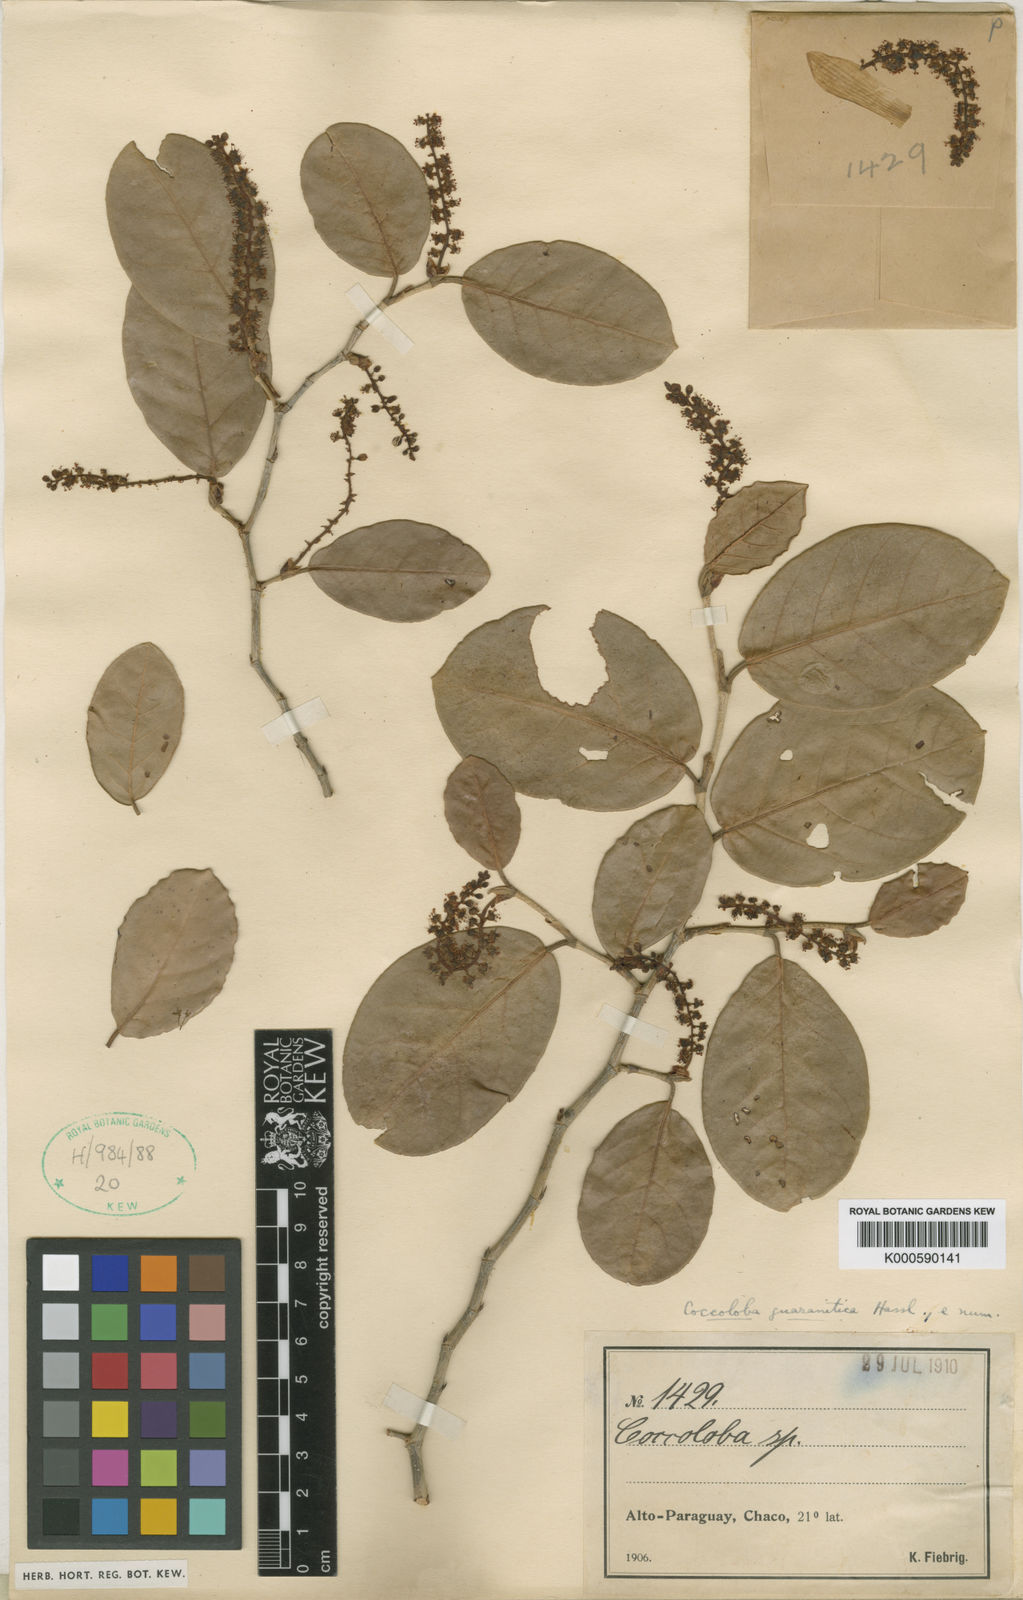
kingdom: Plantae
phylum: Tracheophyta
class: Magnoliopsida
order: Caryophyllales
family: Polygonaceae
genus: Coccoloba
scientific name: Coccoloba guaranitica
